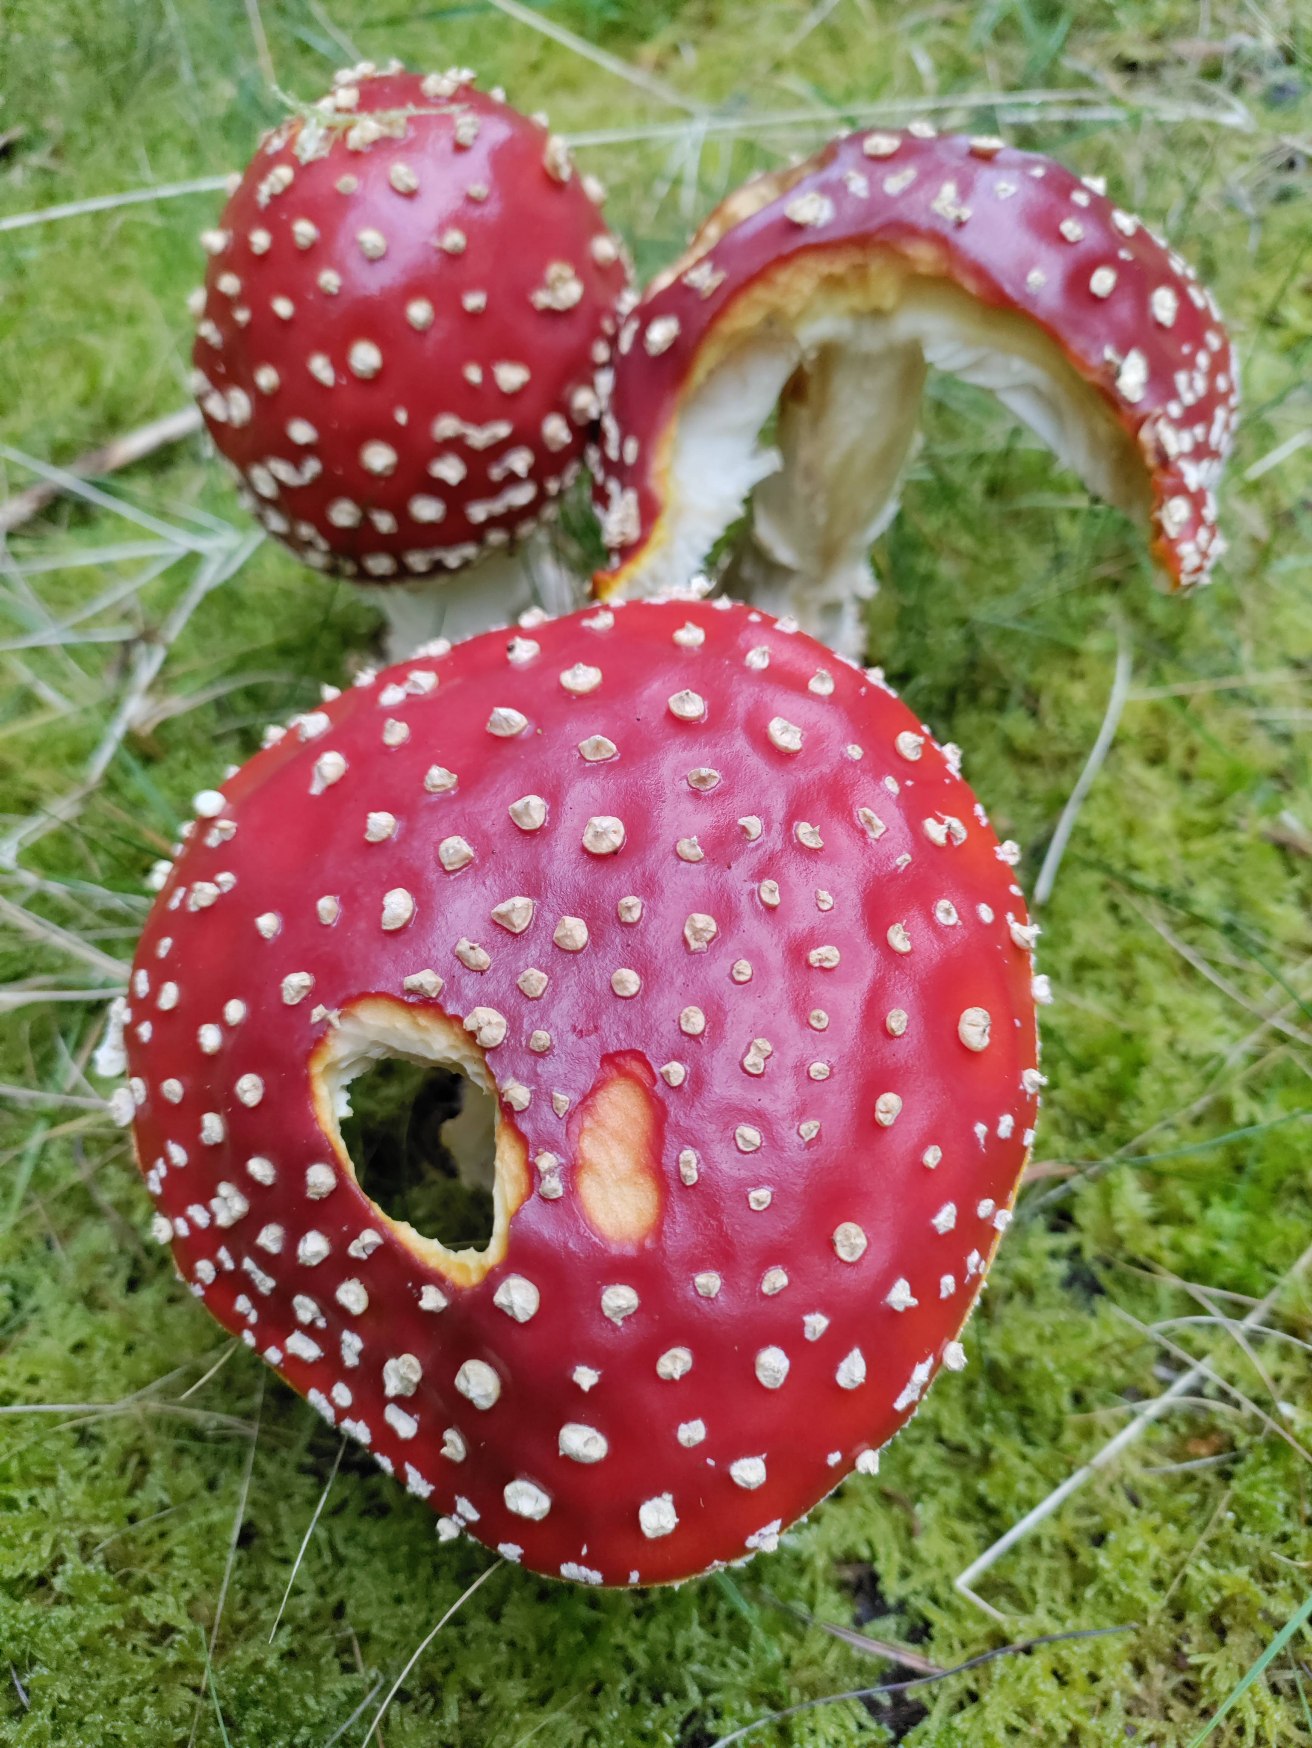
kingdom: Fungi
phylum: Basidiomycota
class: Agaricomycetes
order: Agaricales
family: Amanitaceae
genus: Amanita
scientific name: Amanita muscaria
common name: Rød fluesvamp
